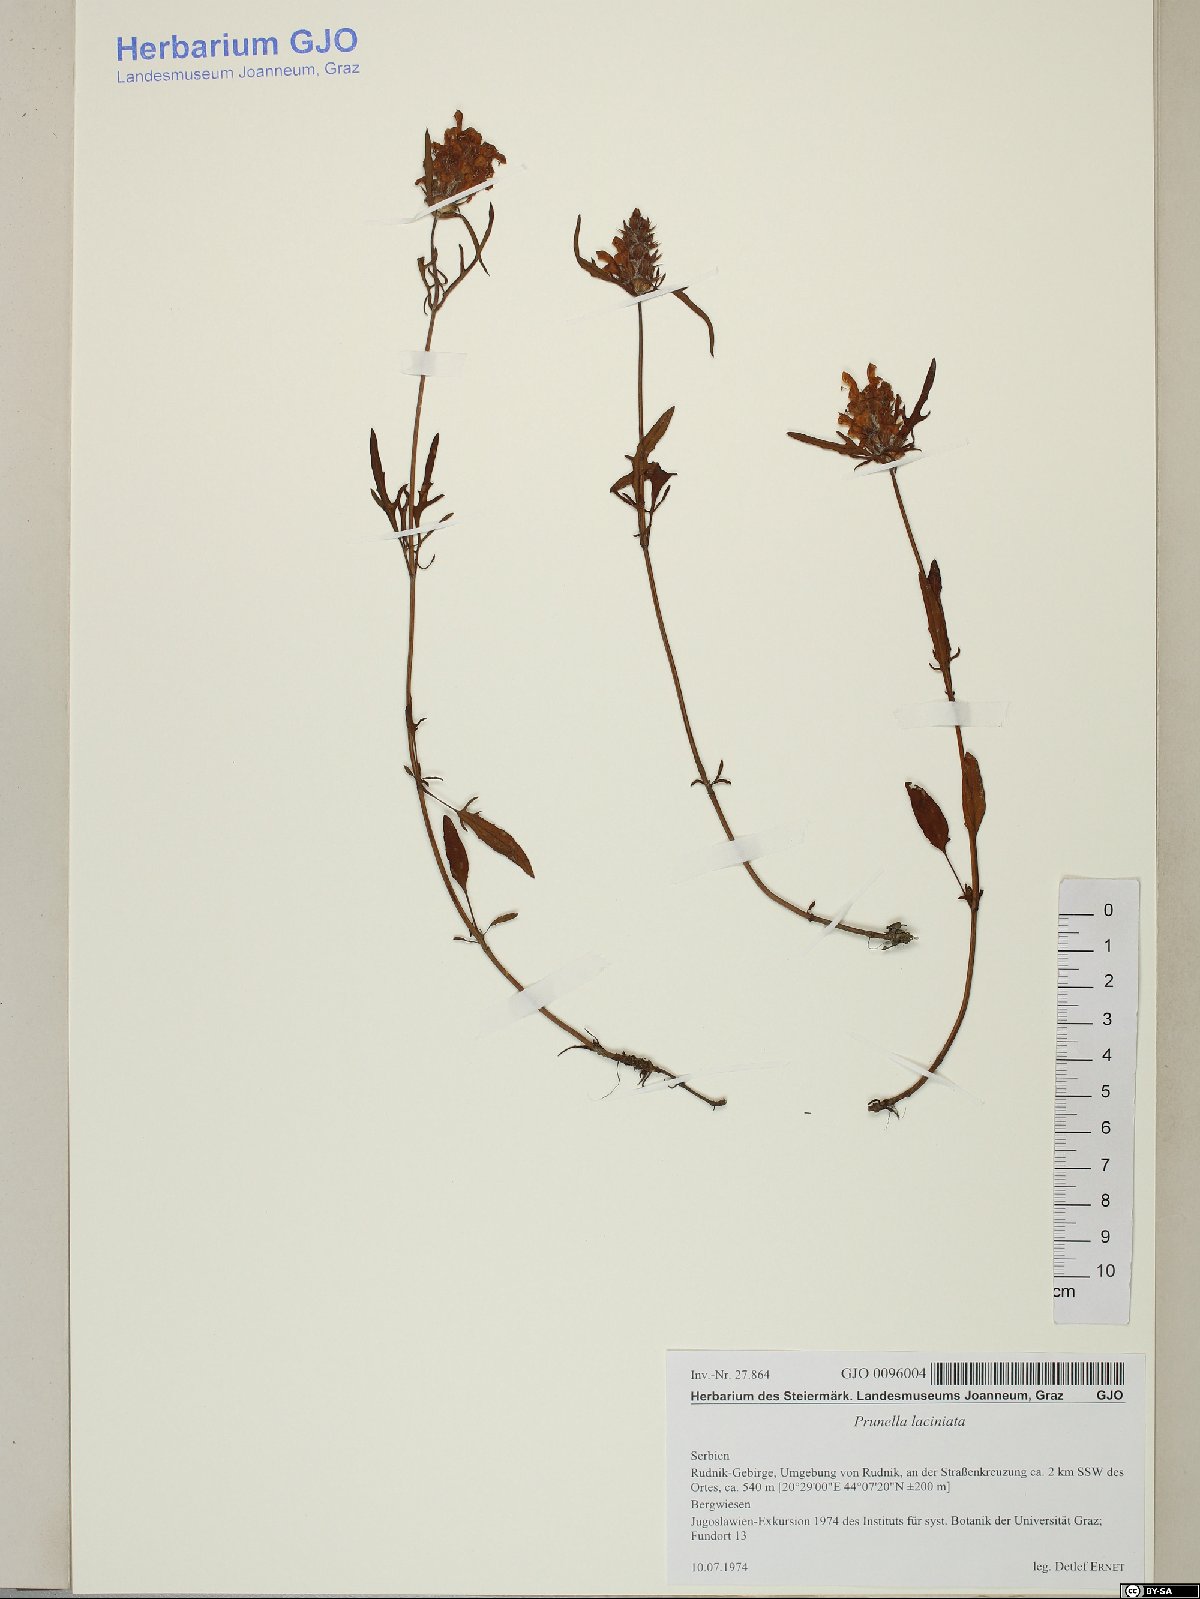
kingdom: Plantae
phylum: Tracheophyta
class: Magnoliopsida
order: Lamiales
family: Lamiaceae
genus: Prunella
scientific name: Prunella laciniata
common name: Cut-leaved selfheal
